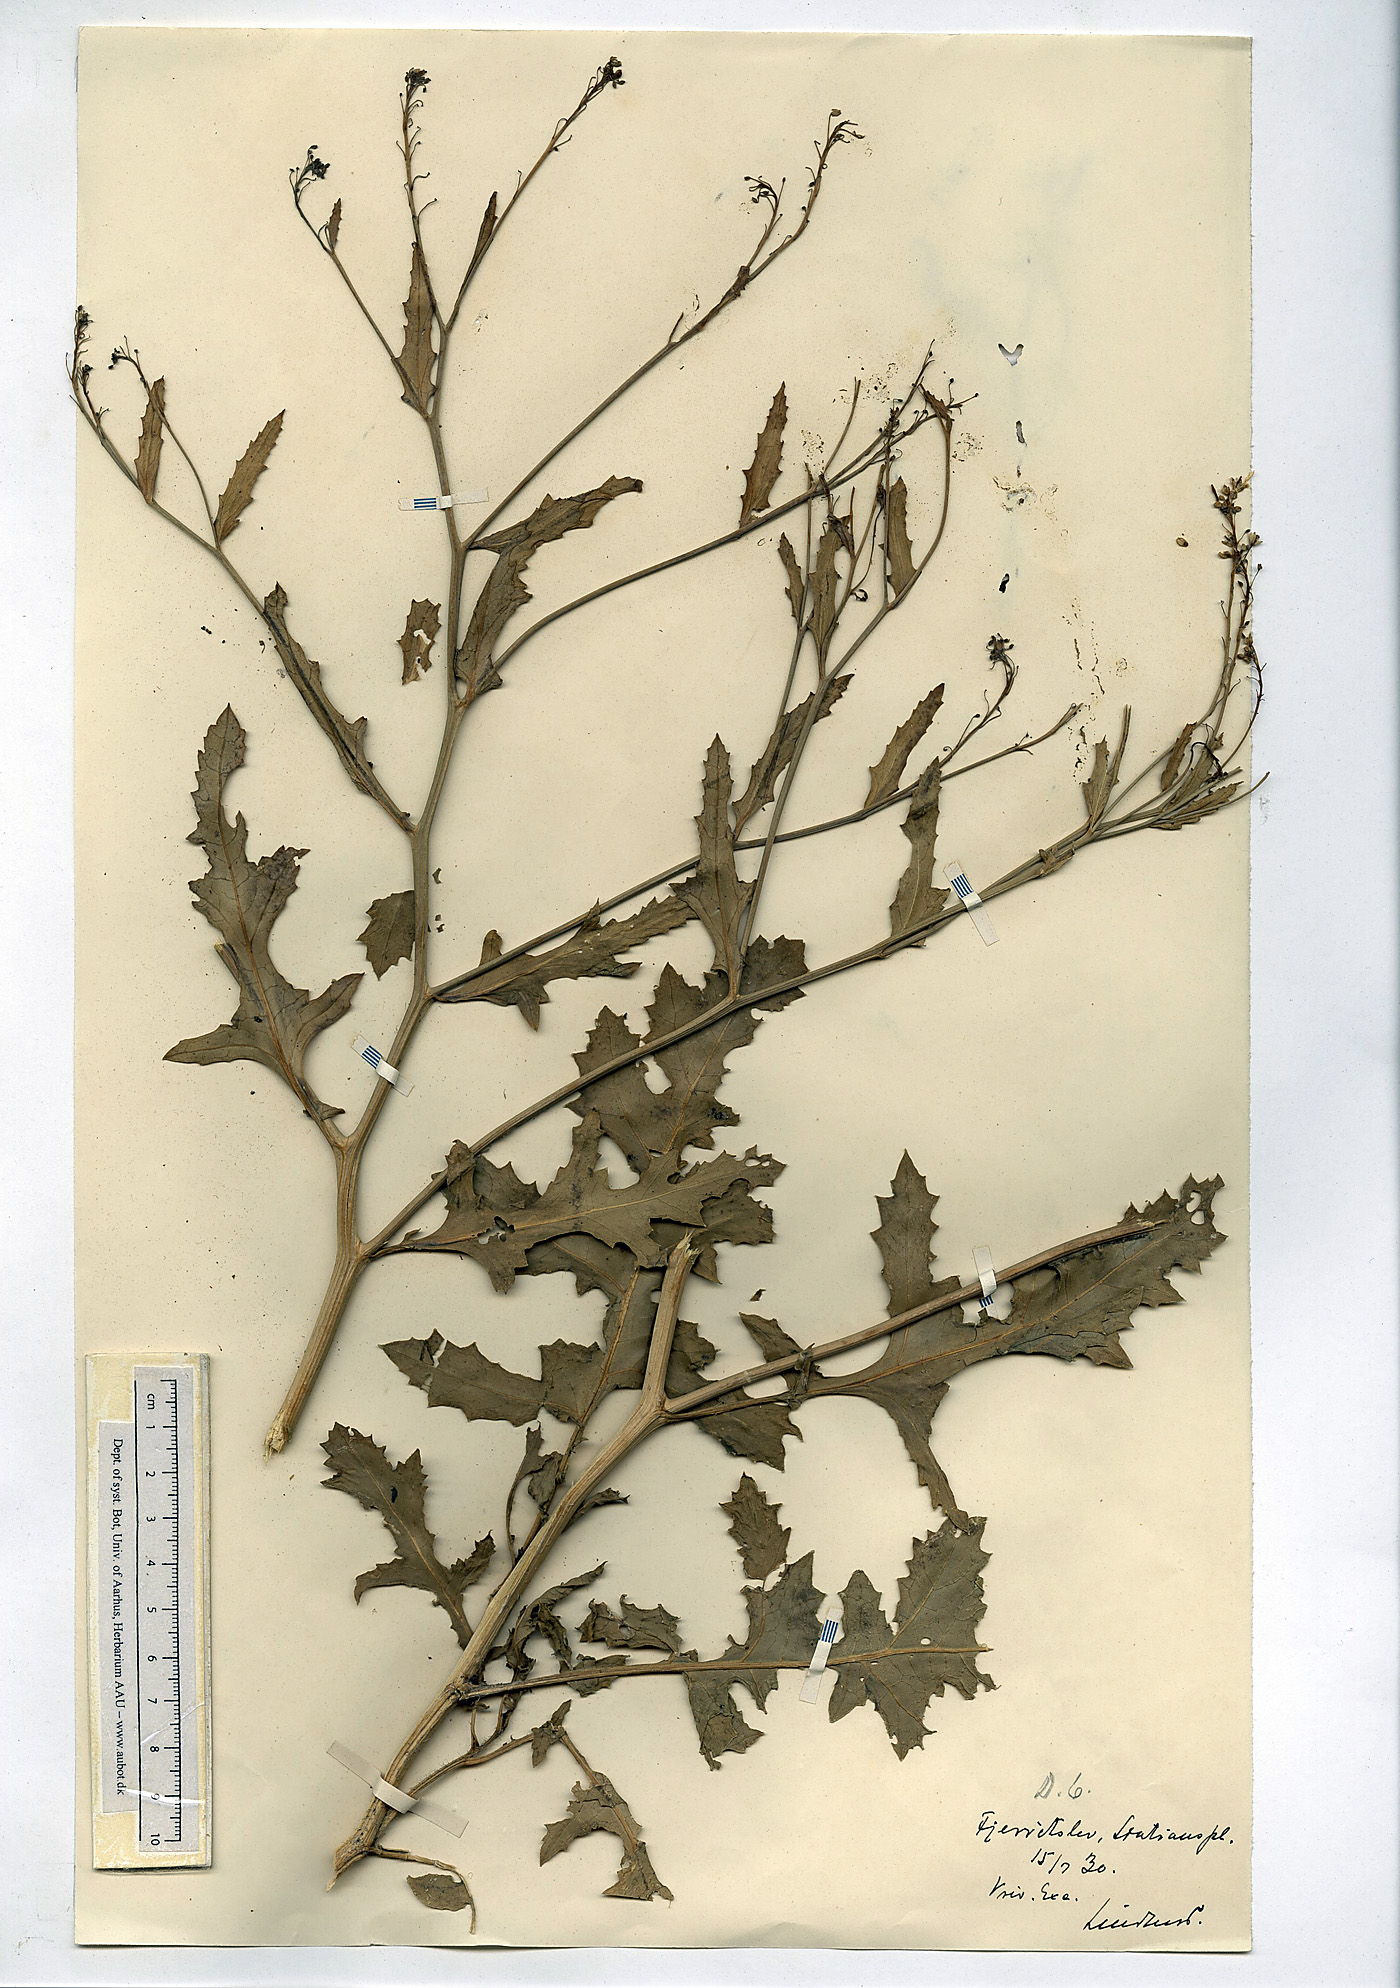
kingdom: Plantae
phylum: Tracheophyta
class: Magnoliopsida
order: Brassicales
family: Brassicaceae
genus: Rapistrum
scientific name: Rapistrum perenne
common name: Steppe cabbage
